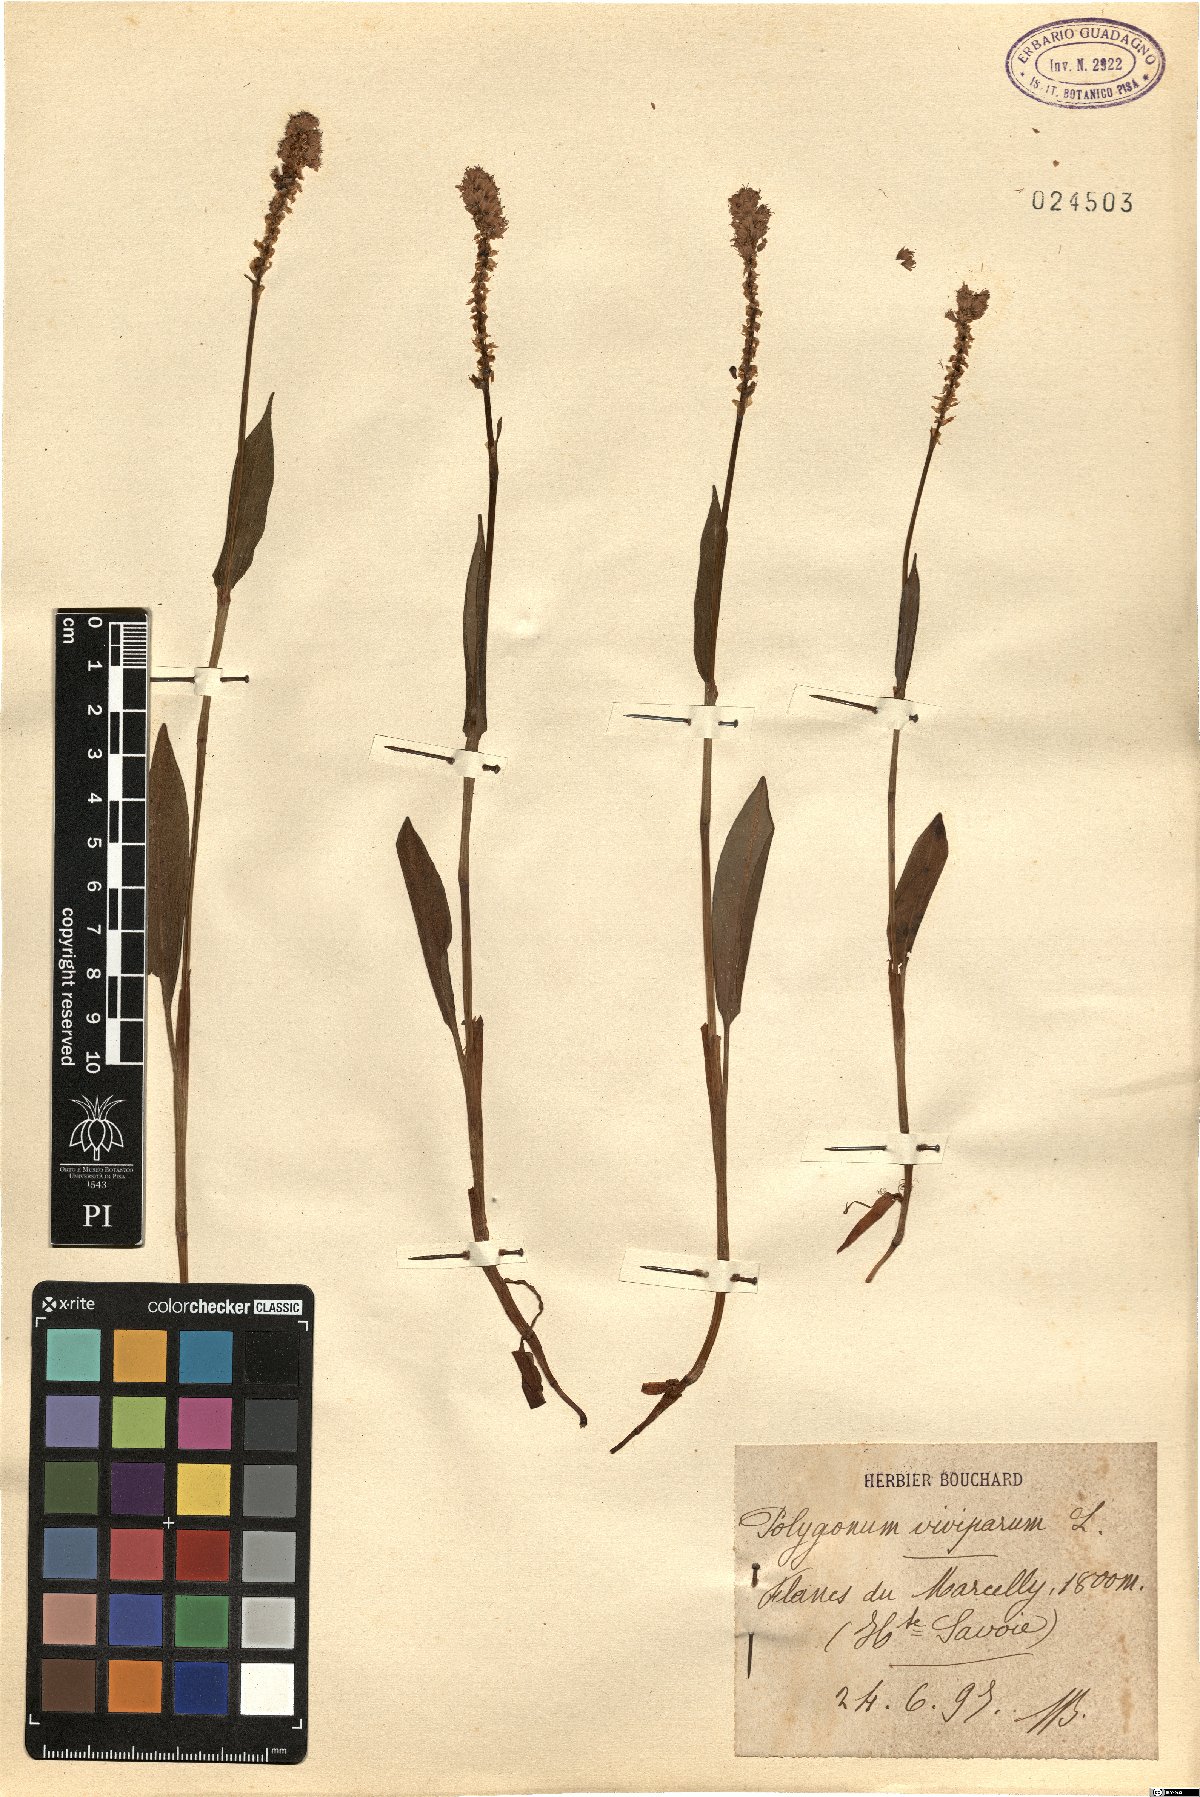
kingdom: Plantae
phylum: Tracheophyta
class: Magnoliopsida
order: Caryophyllales
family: Polygonaceae
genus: Bistorta
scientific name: Bistorta vivipara
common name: Alpine bistort
